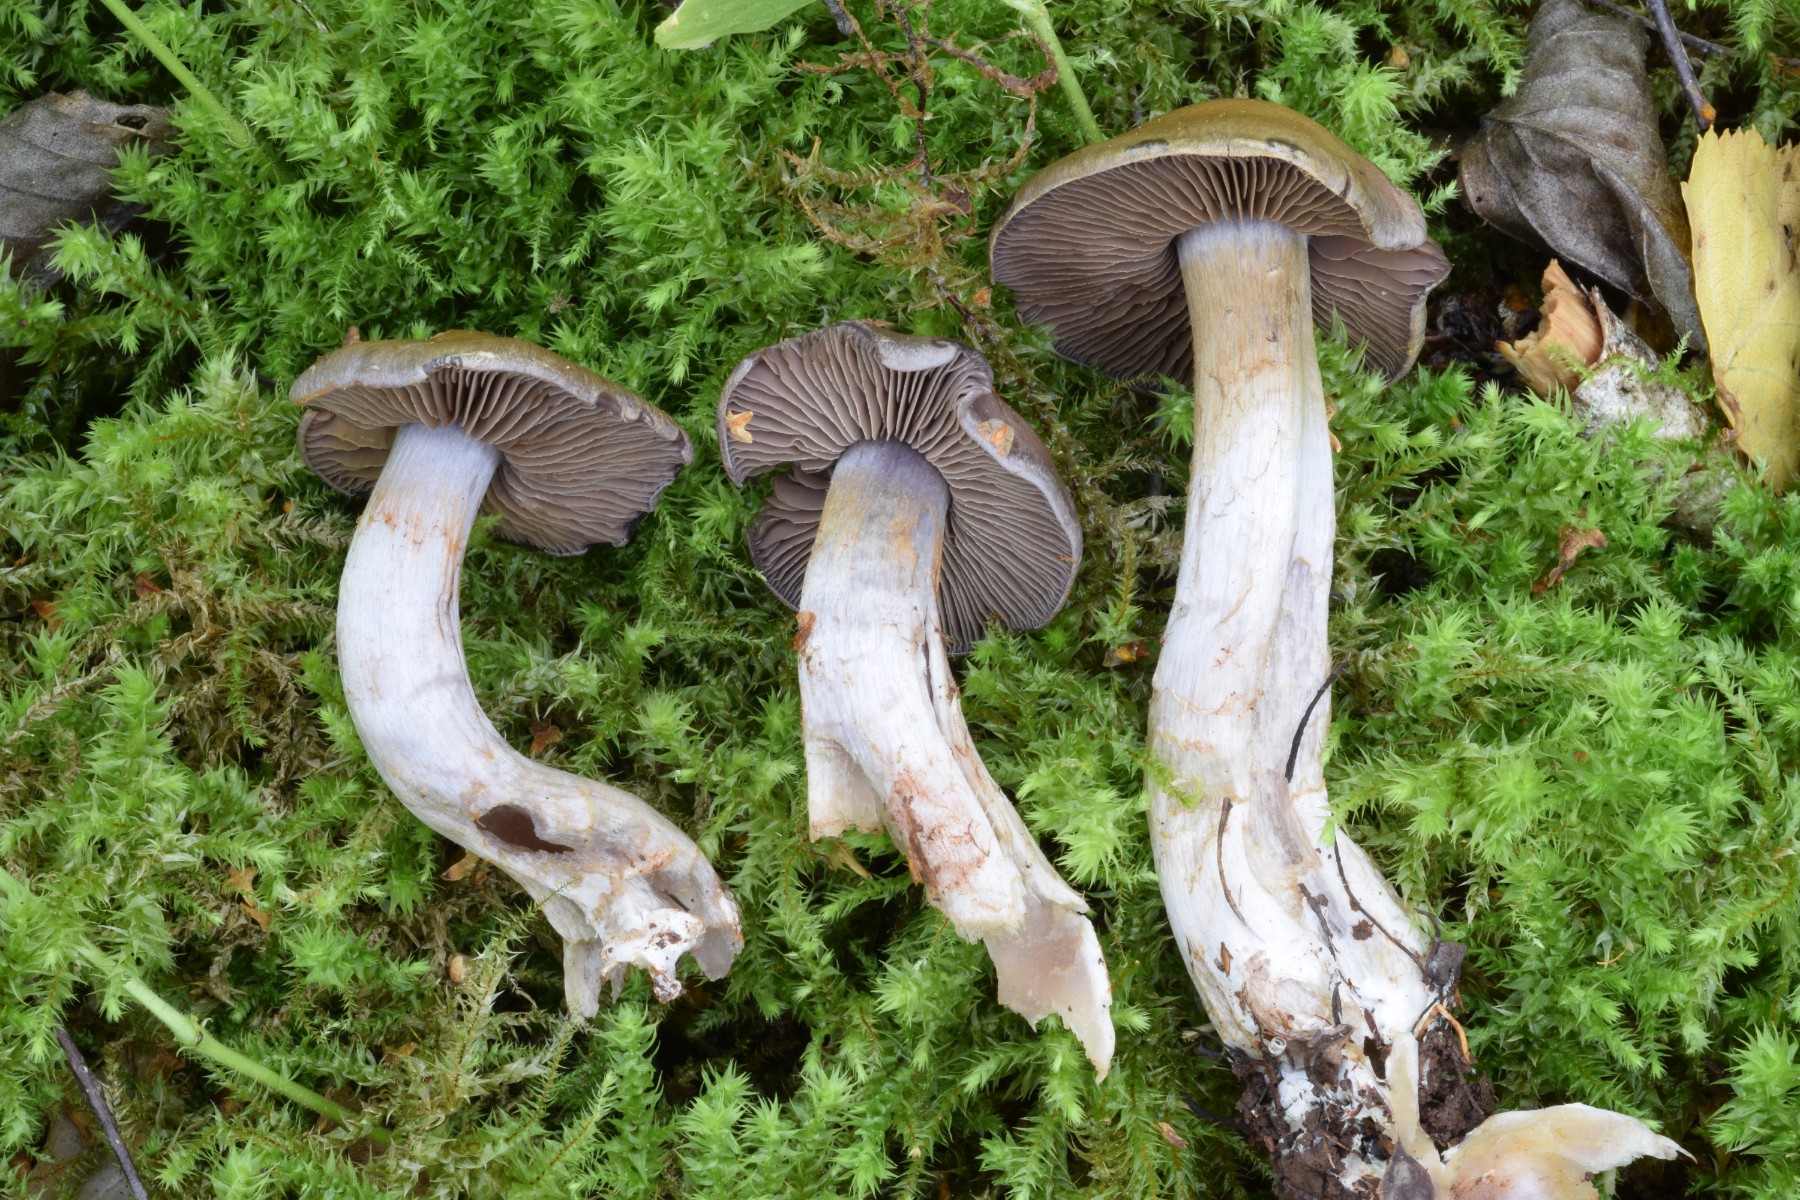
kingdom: Fungi
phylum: Basidiomycota
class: Agaricomycetes
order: Agaricales
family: Cortinariaceae
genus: Cortinarius
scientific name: Cortinarius
